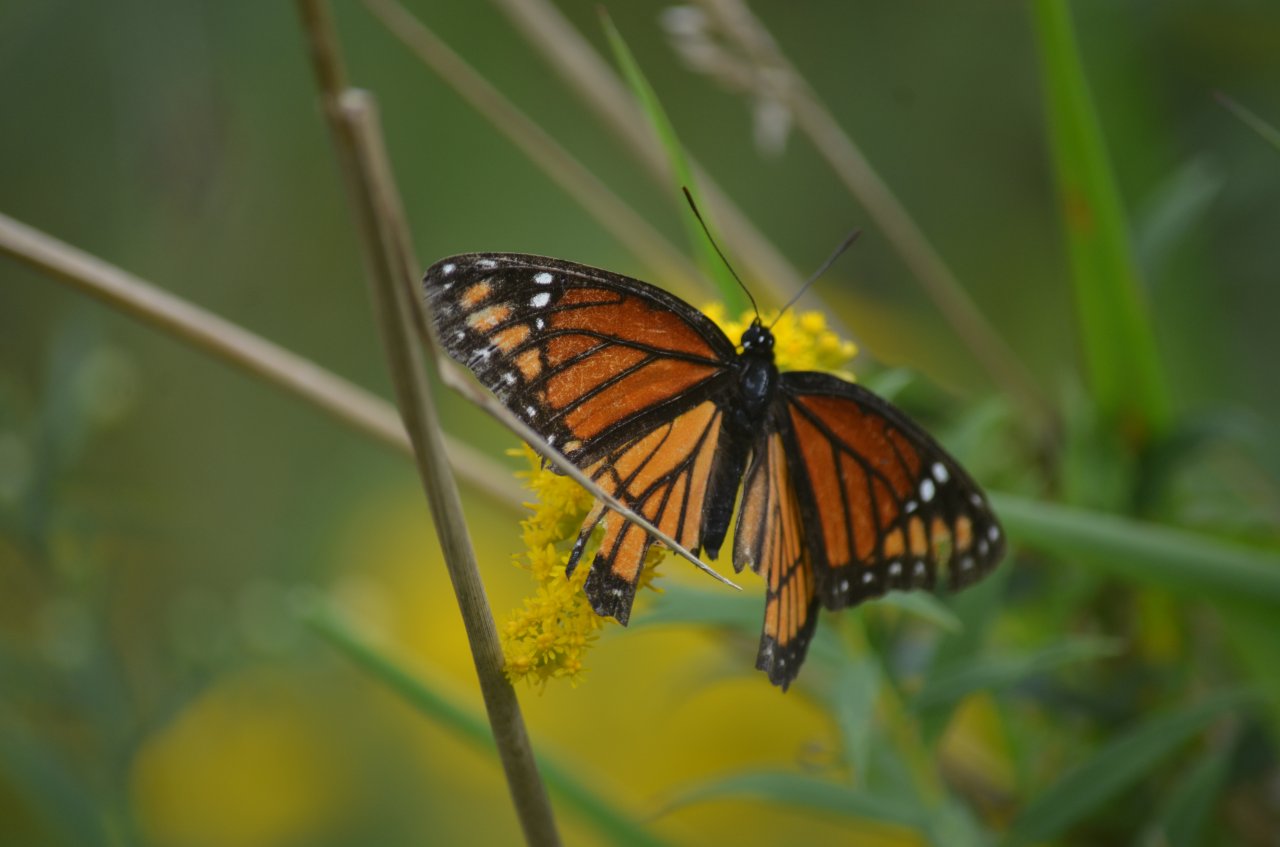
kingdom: Animalia
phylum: Arthropoda
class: Insecta
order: Lepidoptera
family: Nymphalidae
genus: Limenitis
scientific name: Limenitis archippus
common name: Viceroy
